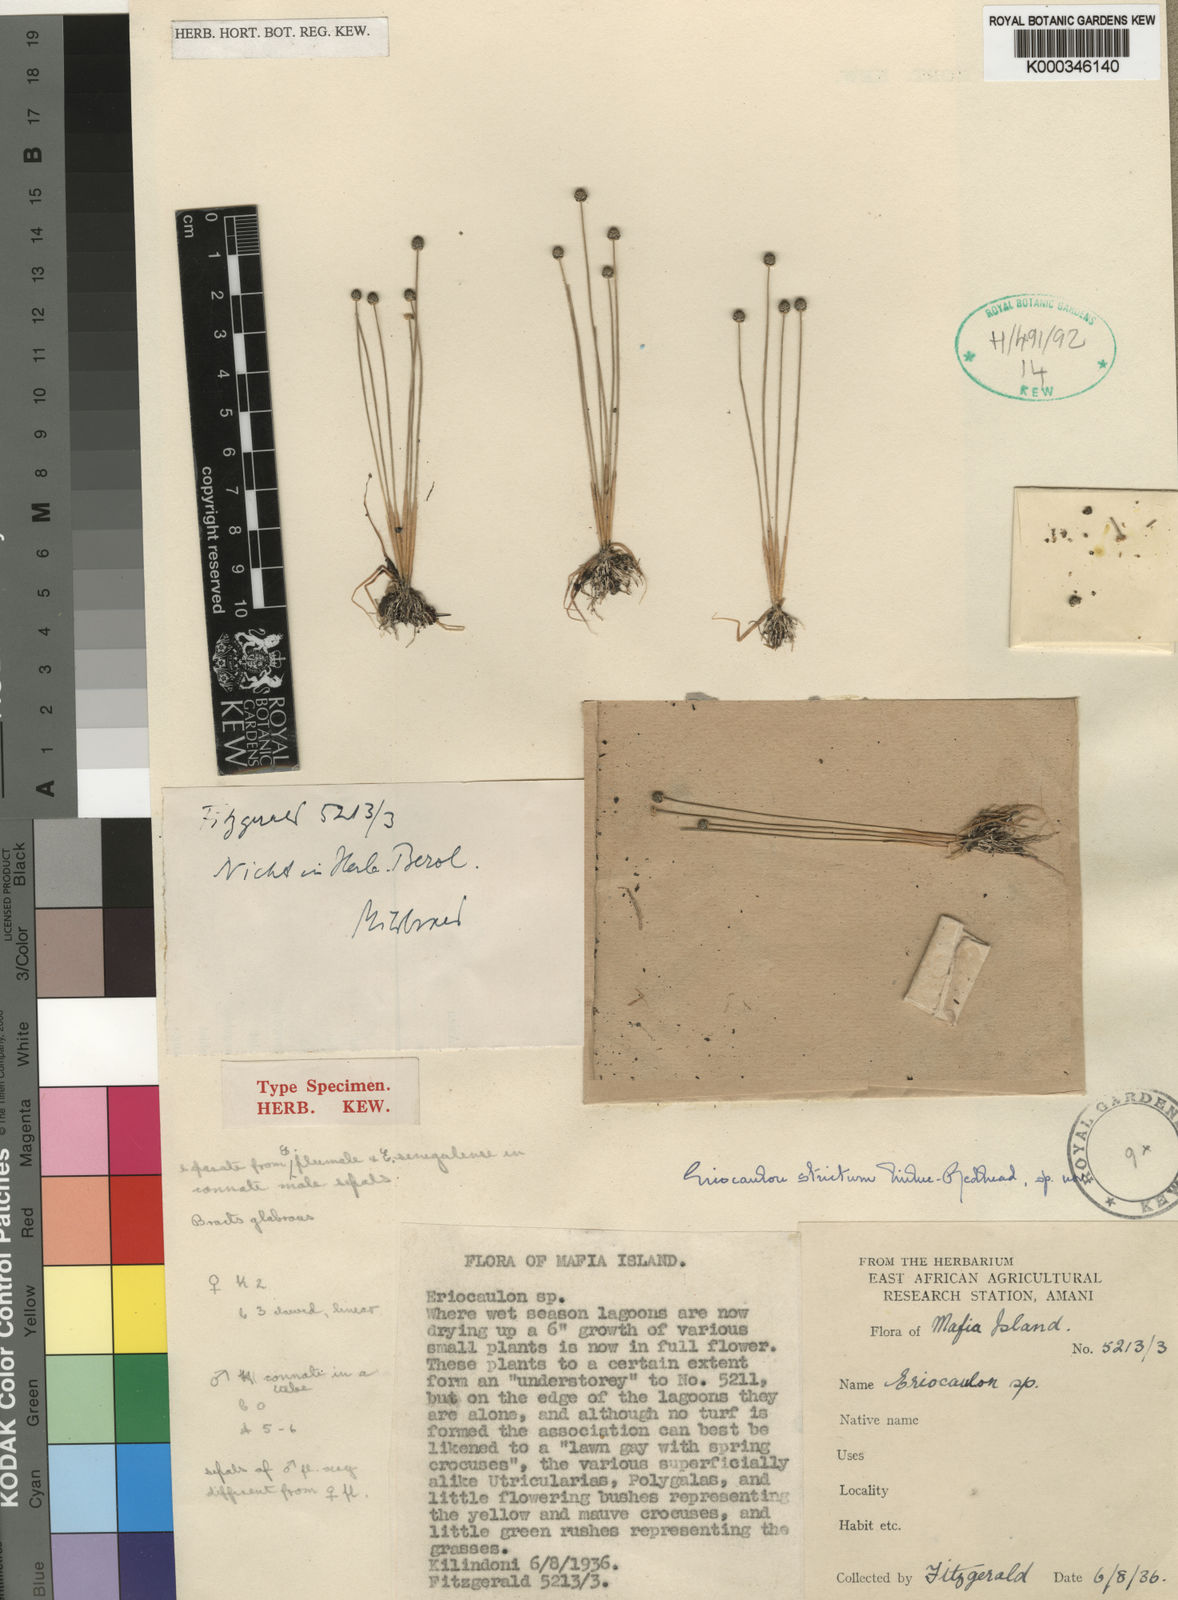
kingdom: Plantae
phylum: Tracheophyta
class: Liliopsida
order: Poales
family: Eriocaulaceae
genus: Eriocaulon
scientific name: Eriocaulon strictum
